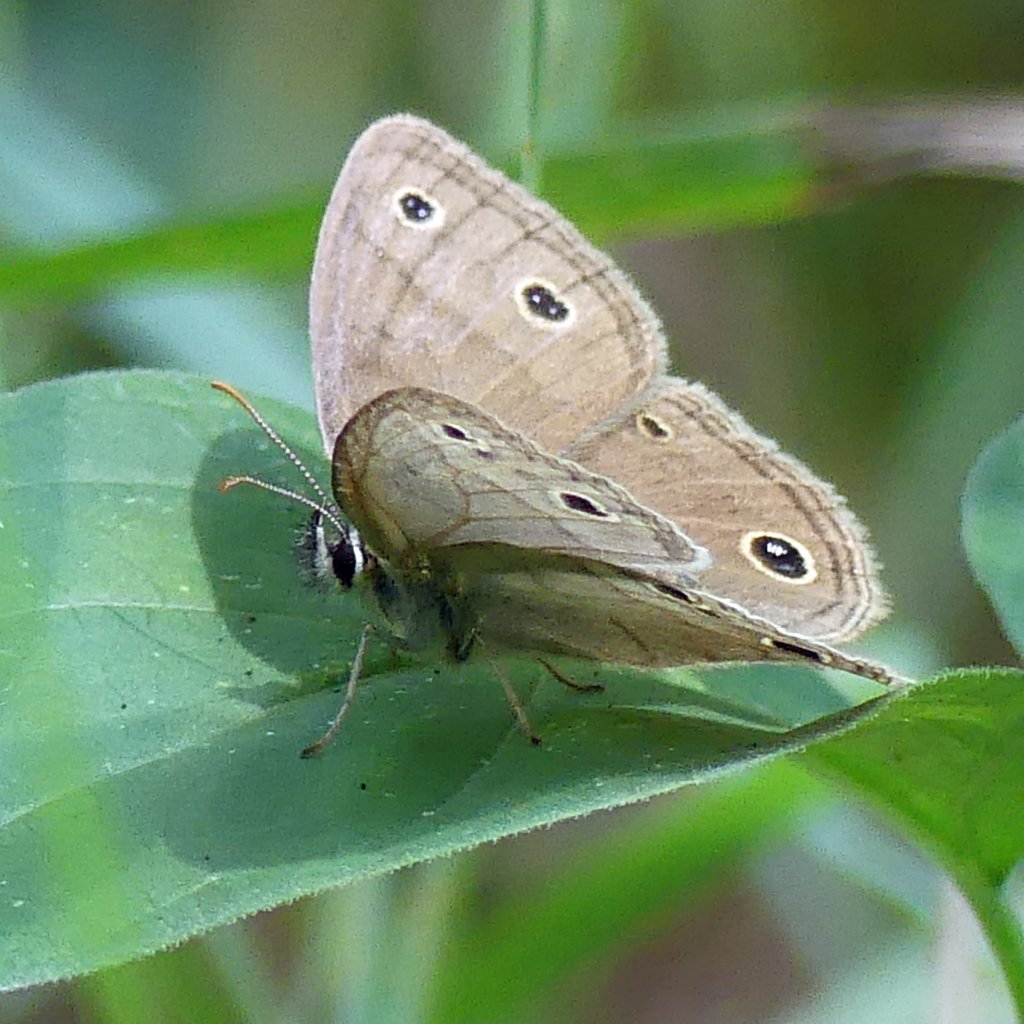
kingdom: Animalia
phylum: Arthropoda
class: Insecta
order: Lepidoptera
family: Nymphalidae
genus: Euptychia
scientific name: Euptychia cymela
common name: Little Wood Satyr
